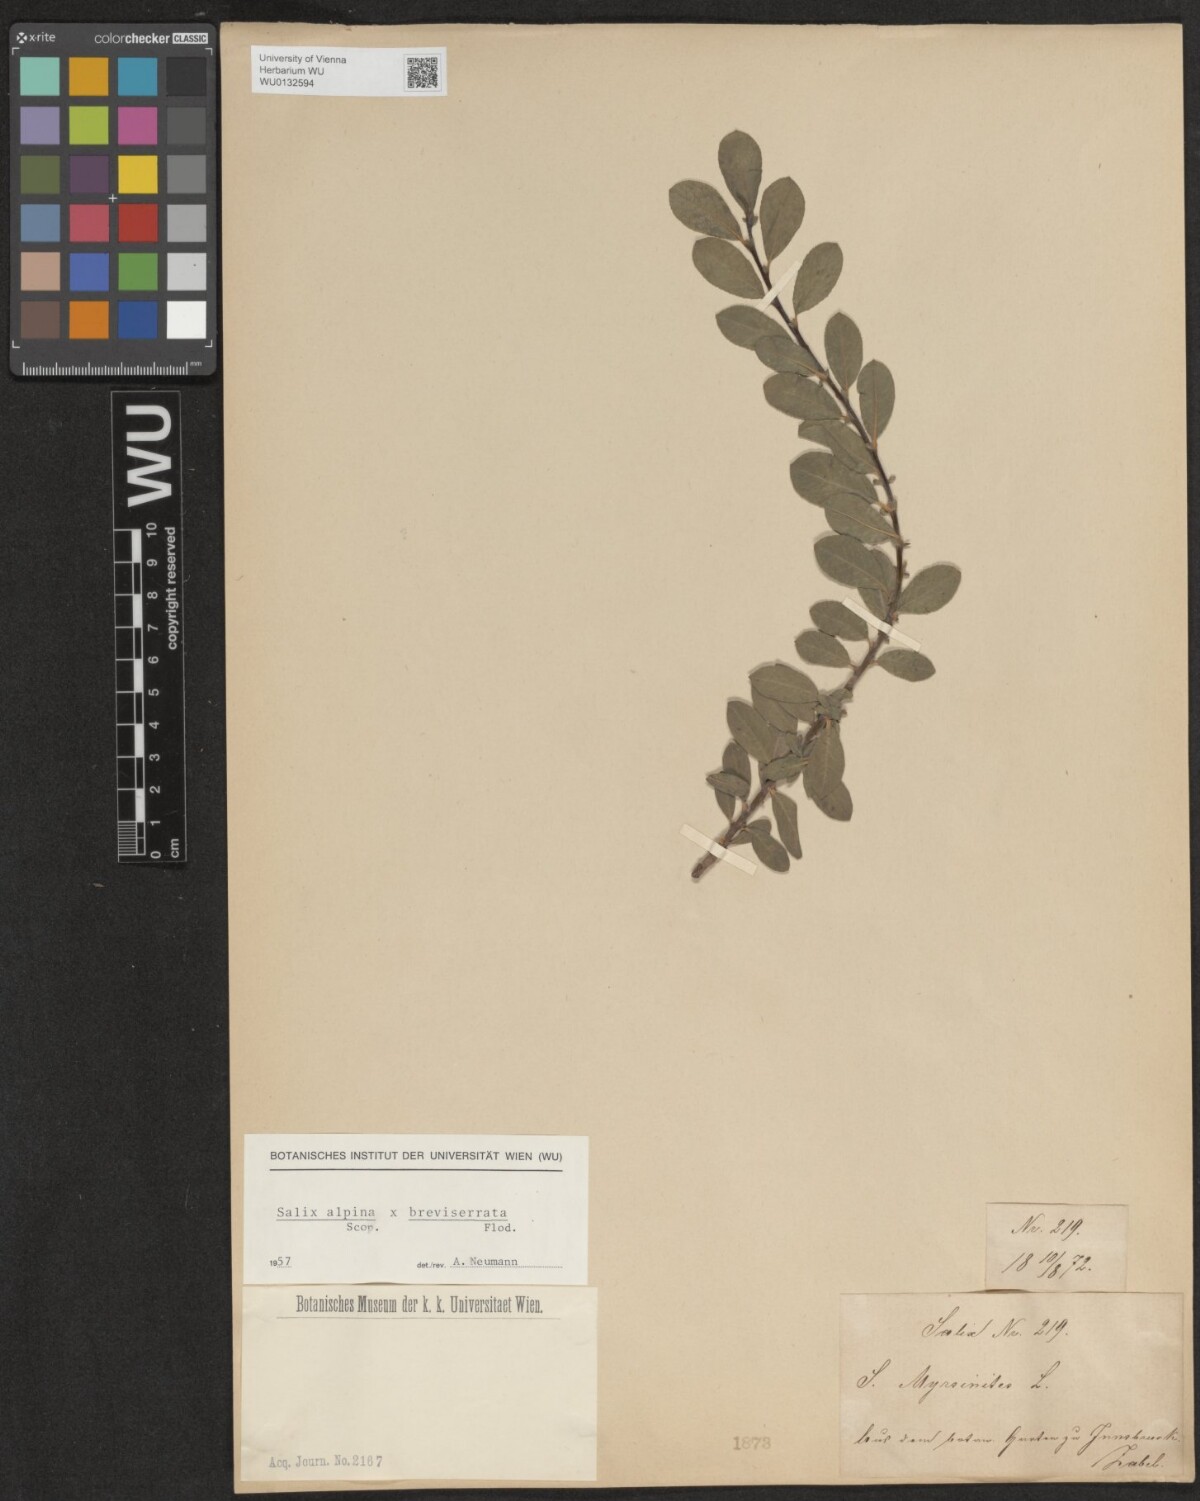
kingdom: Plantae
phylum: Tracheophyta
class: Magnoliopsida
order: Malpighiales
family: Salicaceae
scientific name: Salicaceae
